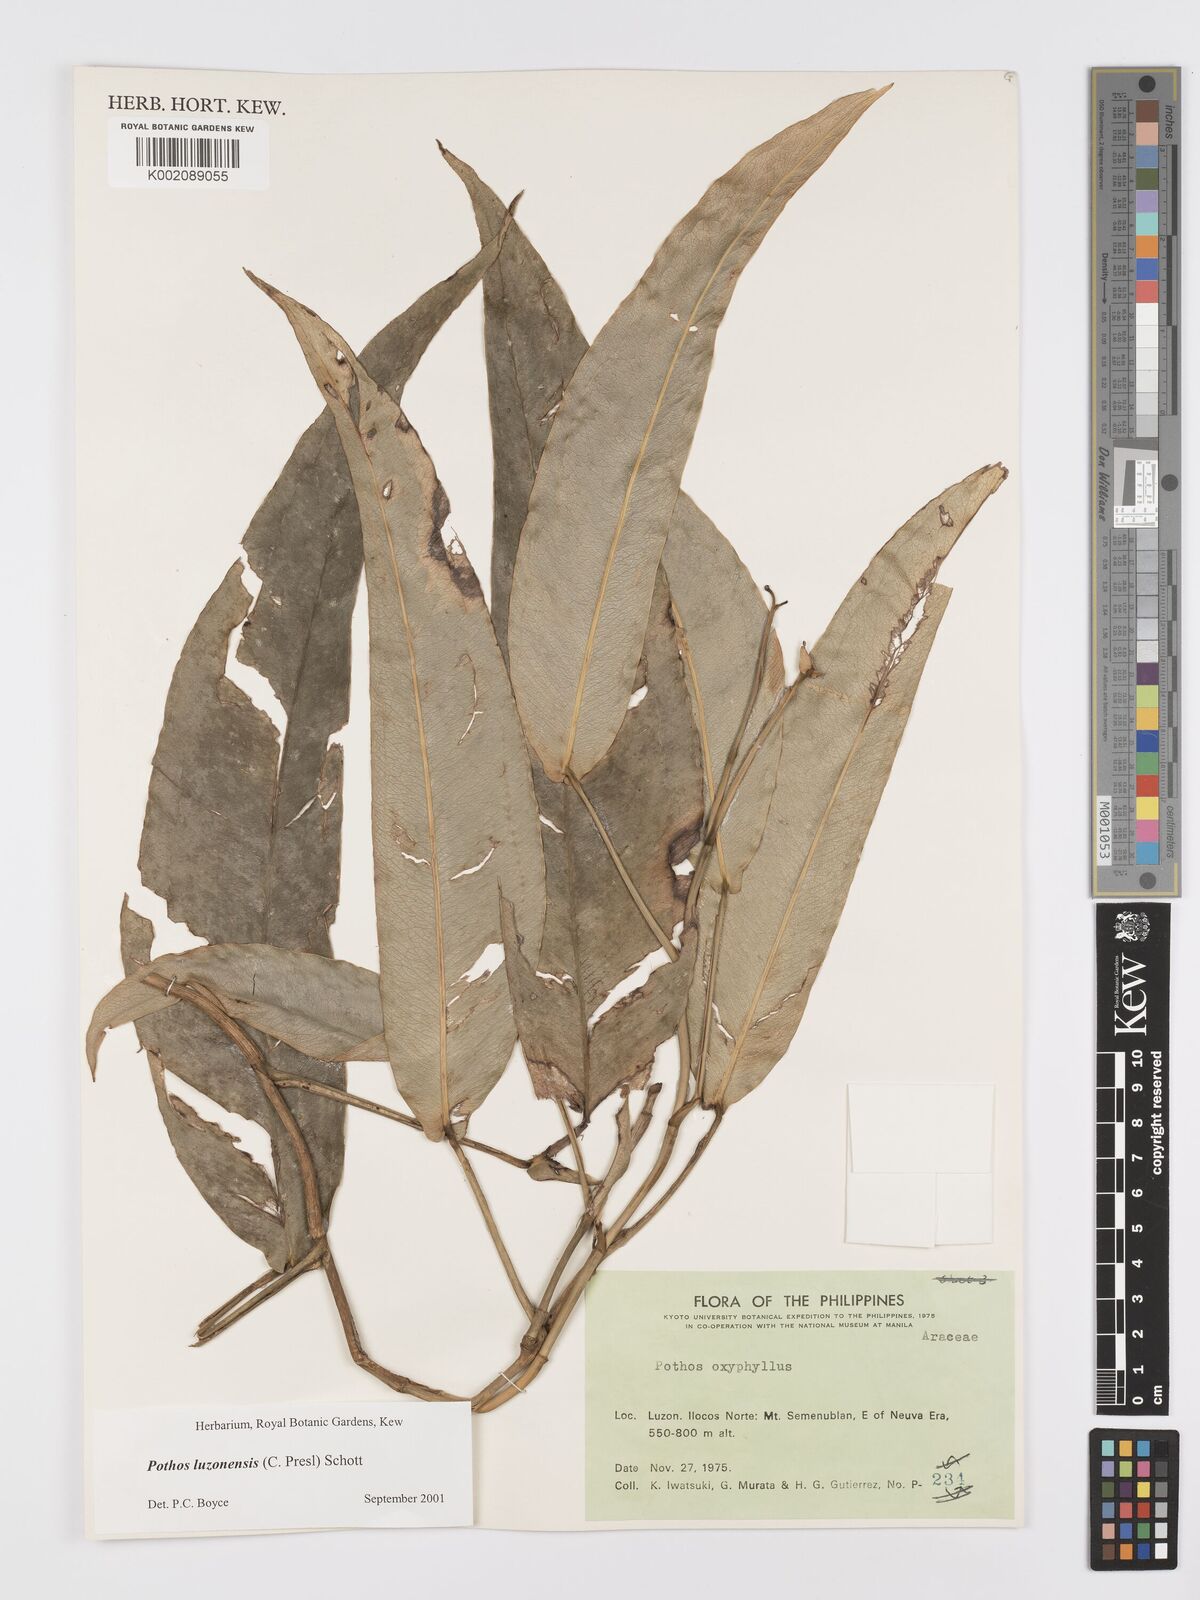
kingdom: Plantae
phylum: Tracheophyta
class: Liliopsida
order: Alismatales
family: Araceae
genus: Pothos
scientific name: Pothos luzonensis
